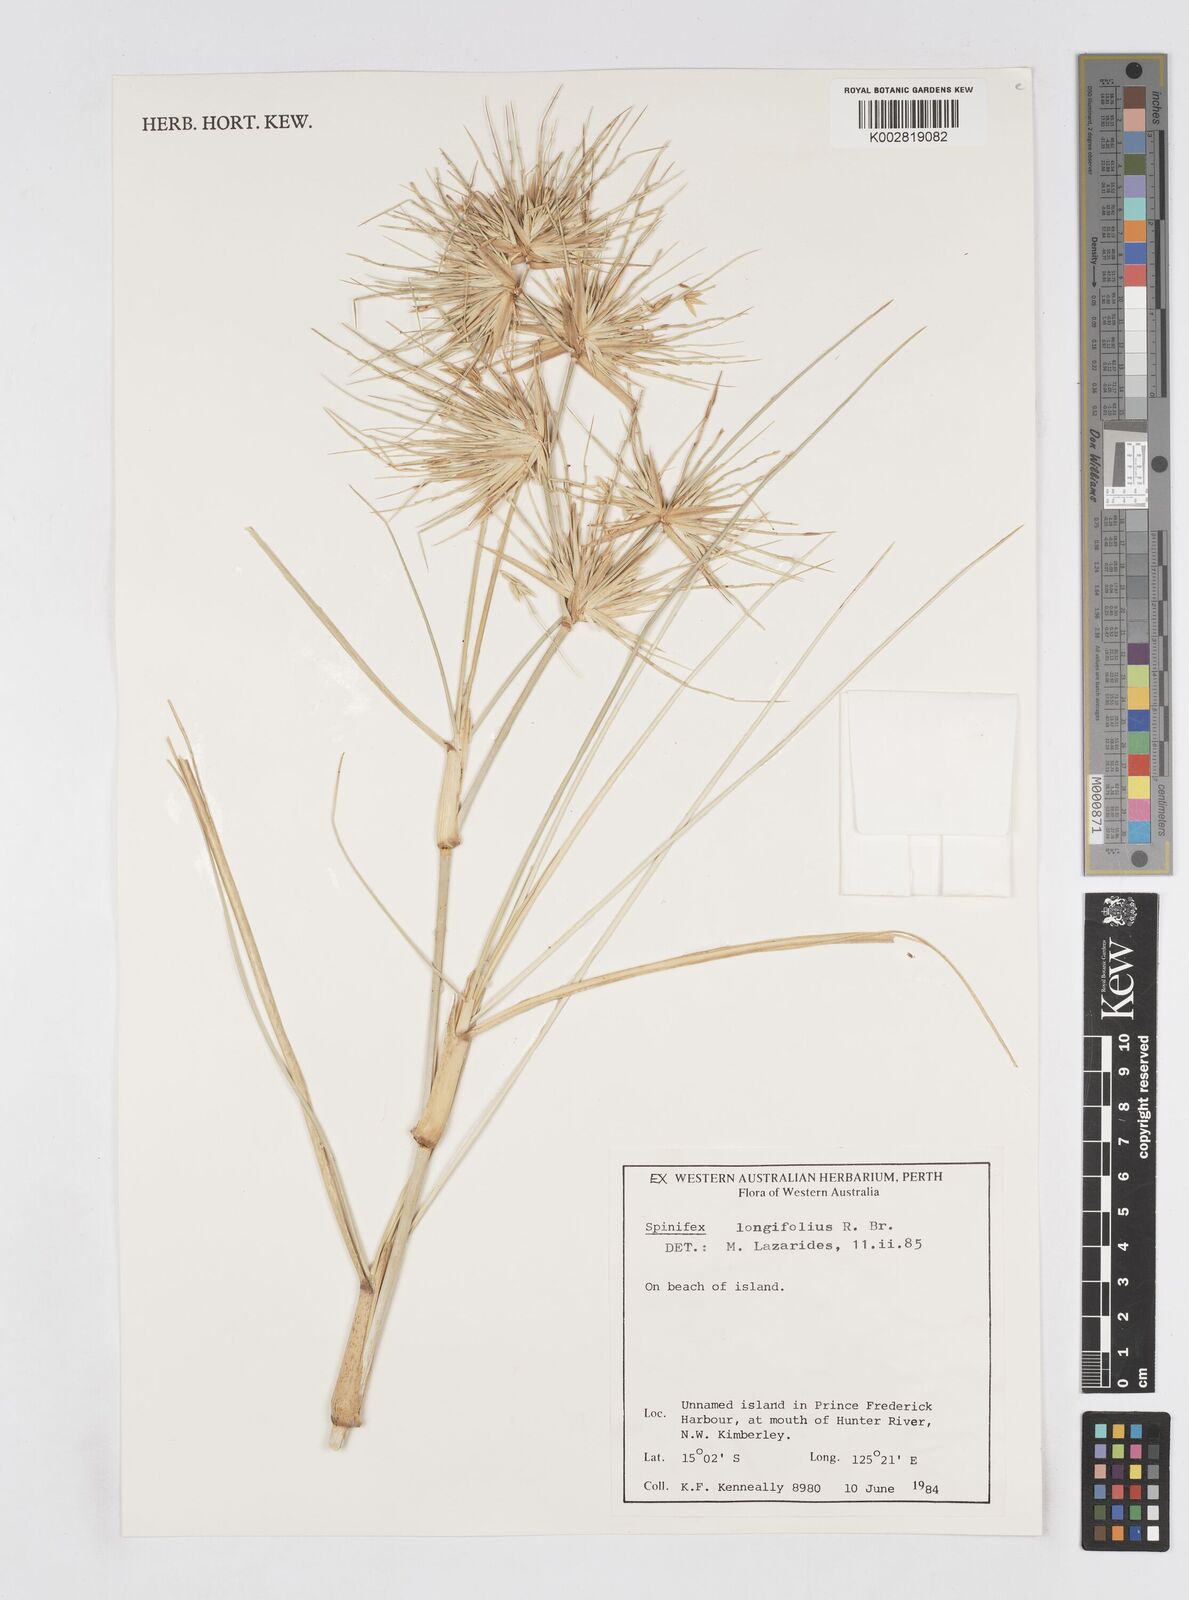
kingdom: Plantae
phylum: Tracheophyta
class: Liliopsida
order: Poales
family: Poaceae
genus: Spinifex
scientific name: Spinifex longifolius
